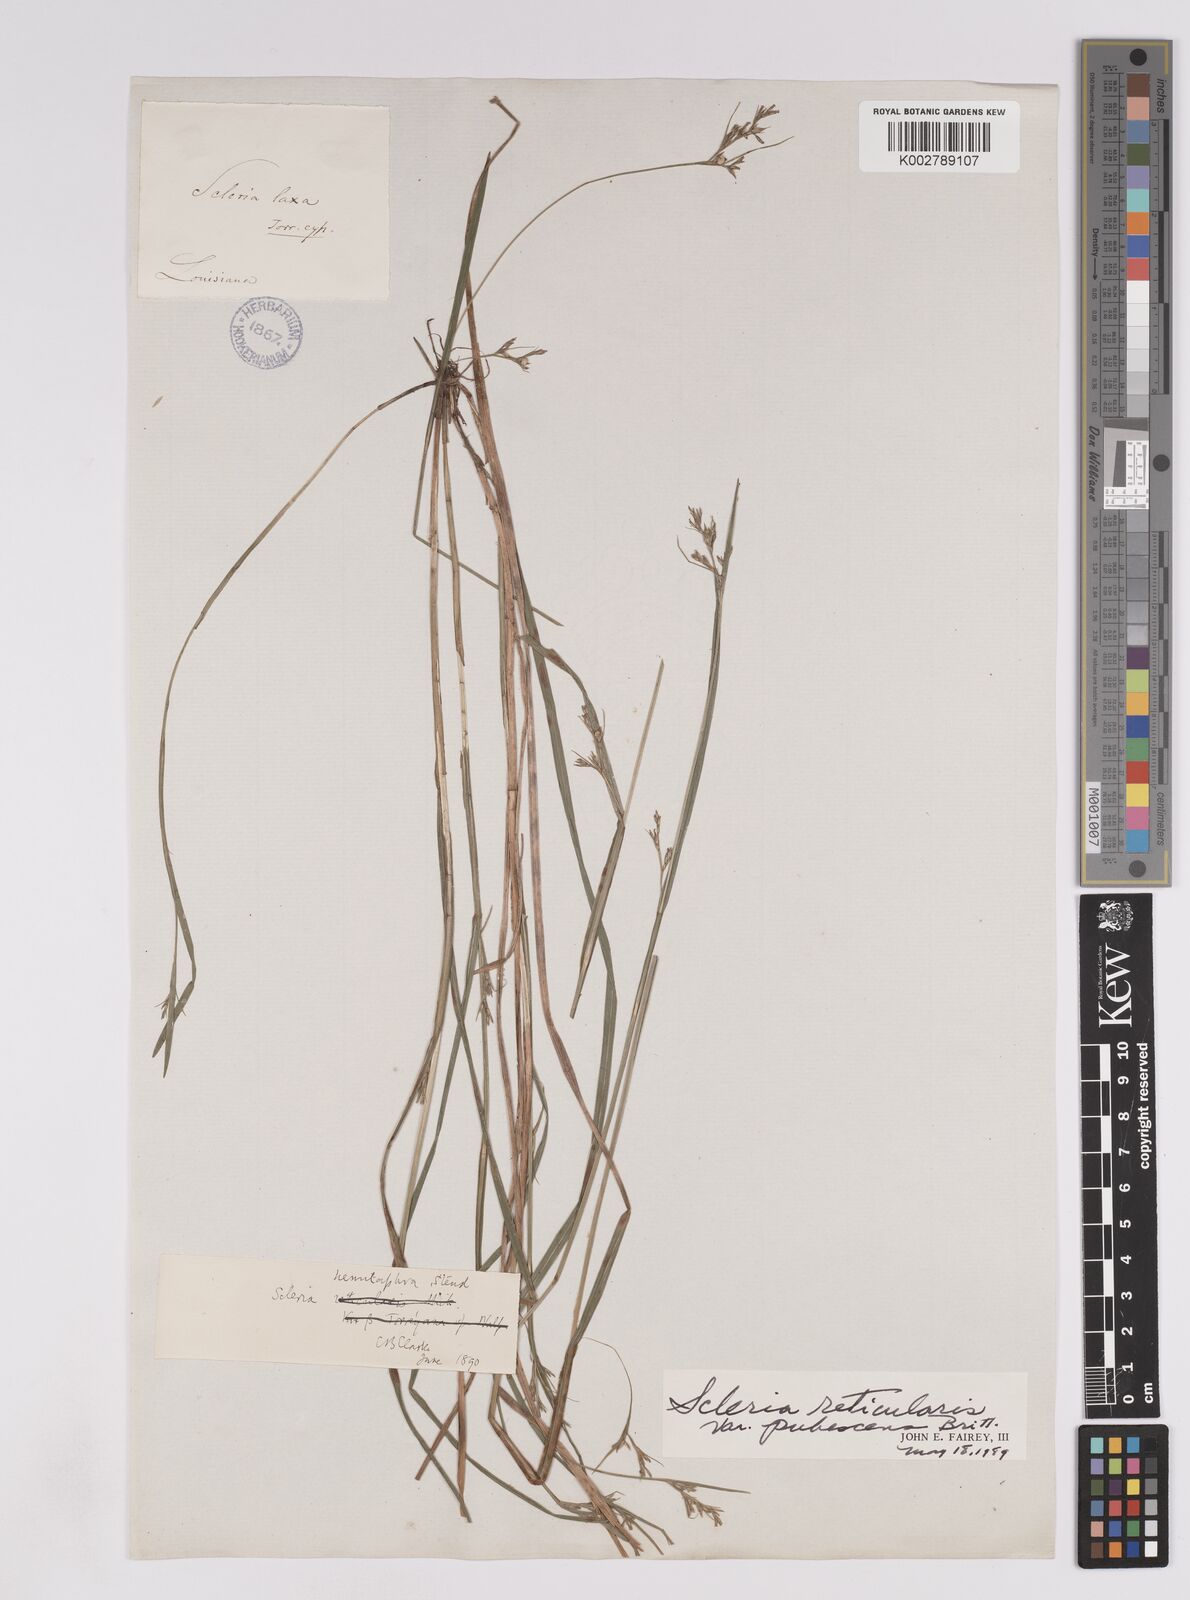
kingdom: Plantae
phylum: Tracheophyta
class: Liliopsida
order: Poales
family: Cyperaceae
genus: Scleria
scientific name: Scleria muehlenbergii
